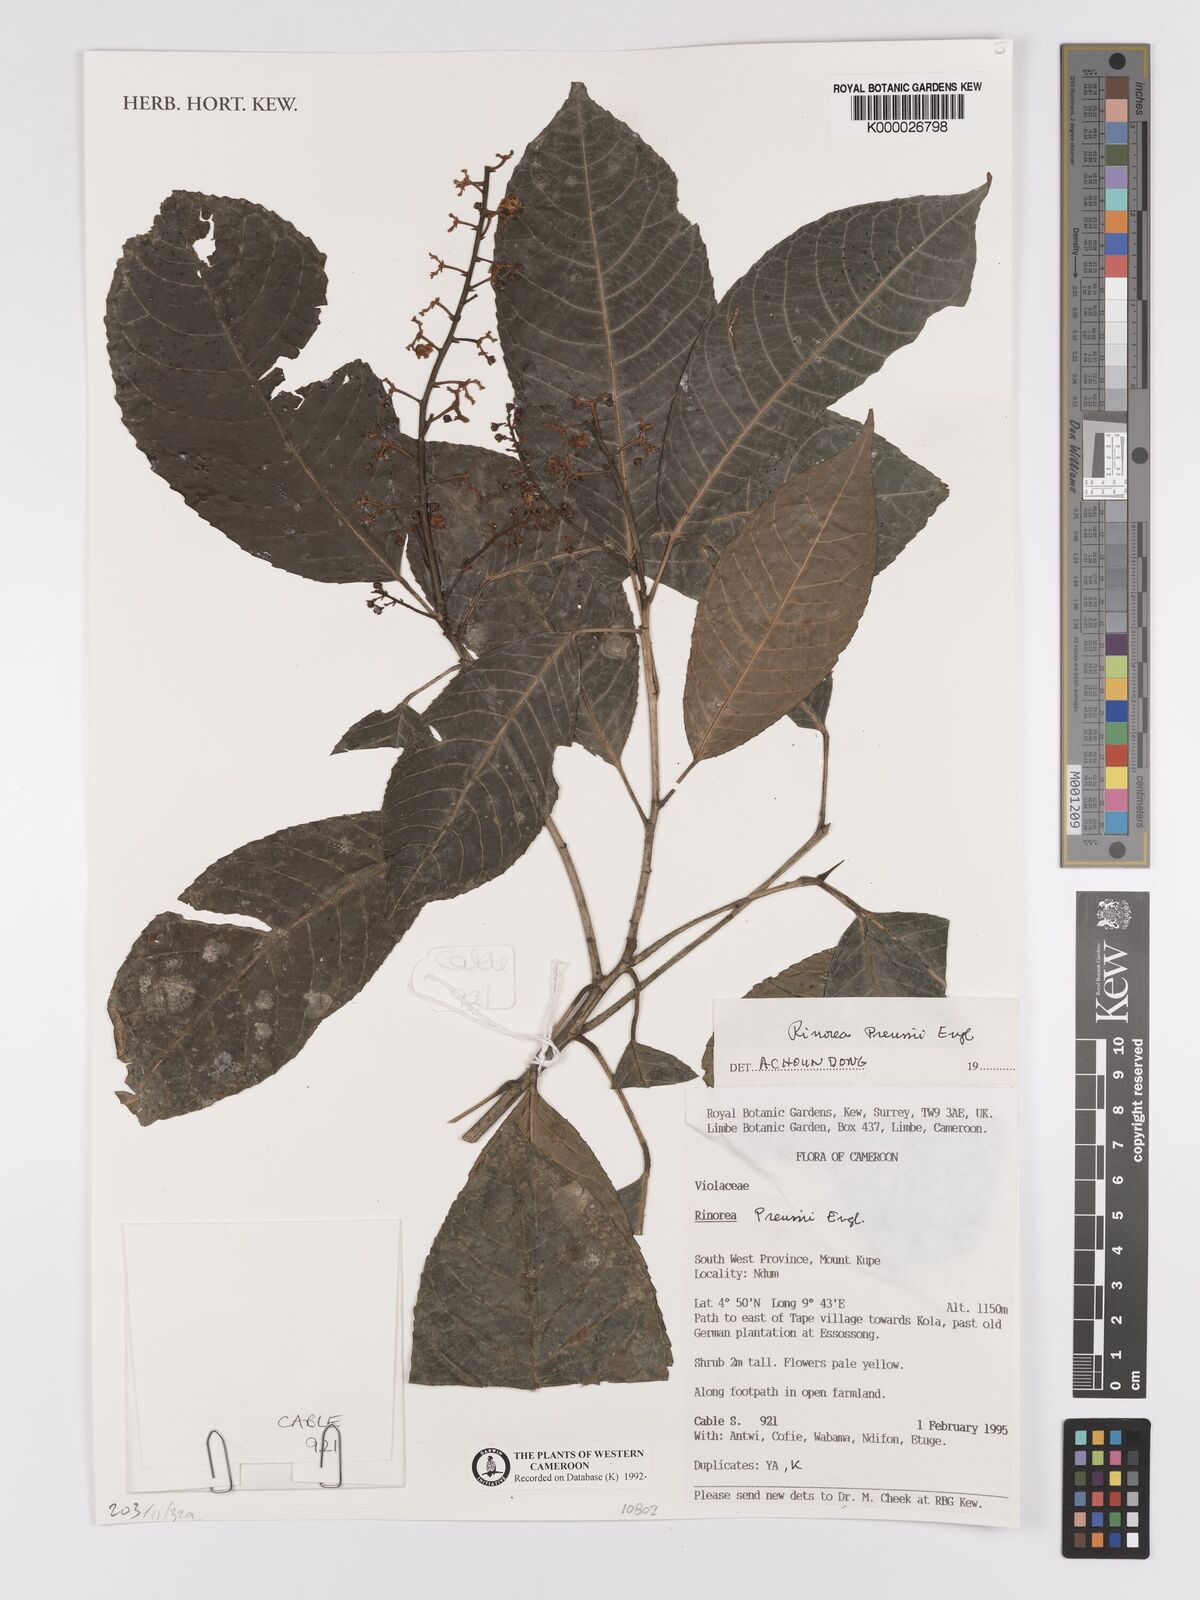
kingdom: Plantae
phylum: Tracheophyta
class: Magnoliopsida
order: Malpighiales
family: Violaceae
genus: Rinorea
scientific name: Rinorea preussii
